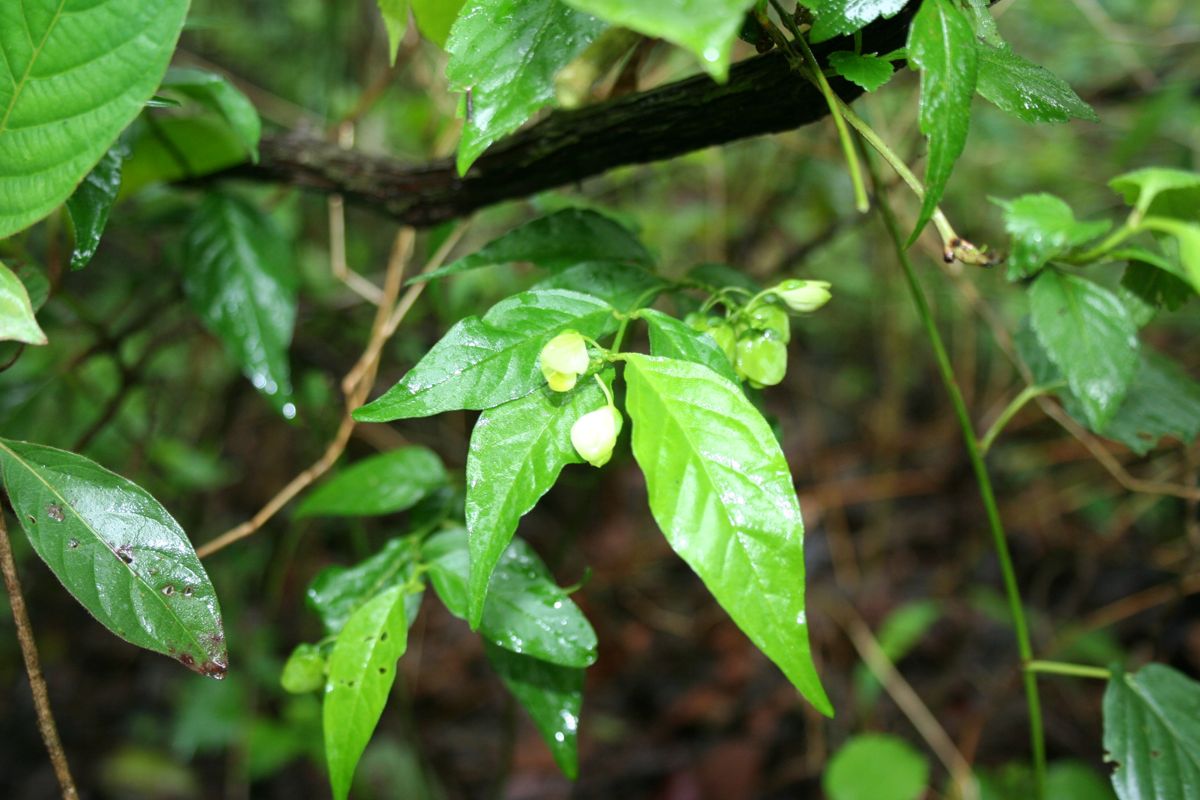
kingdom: Plantae
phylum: Tracheophyta
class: Magnoliopsida
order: Fabales
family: Polygalaceae
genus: Asemeia
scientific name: Asemeia hondurana
